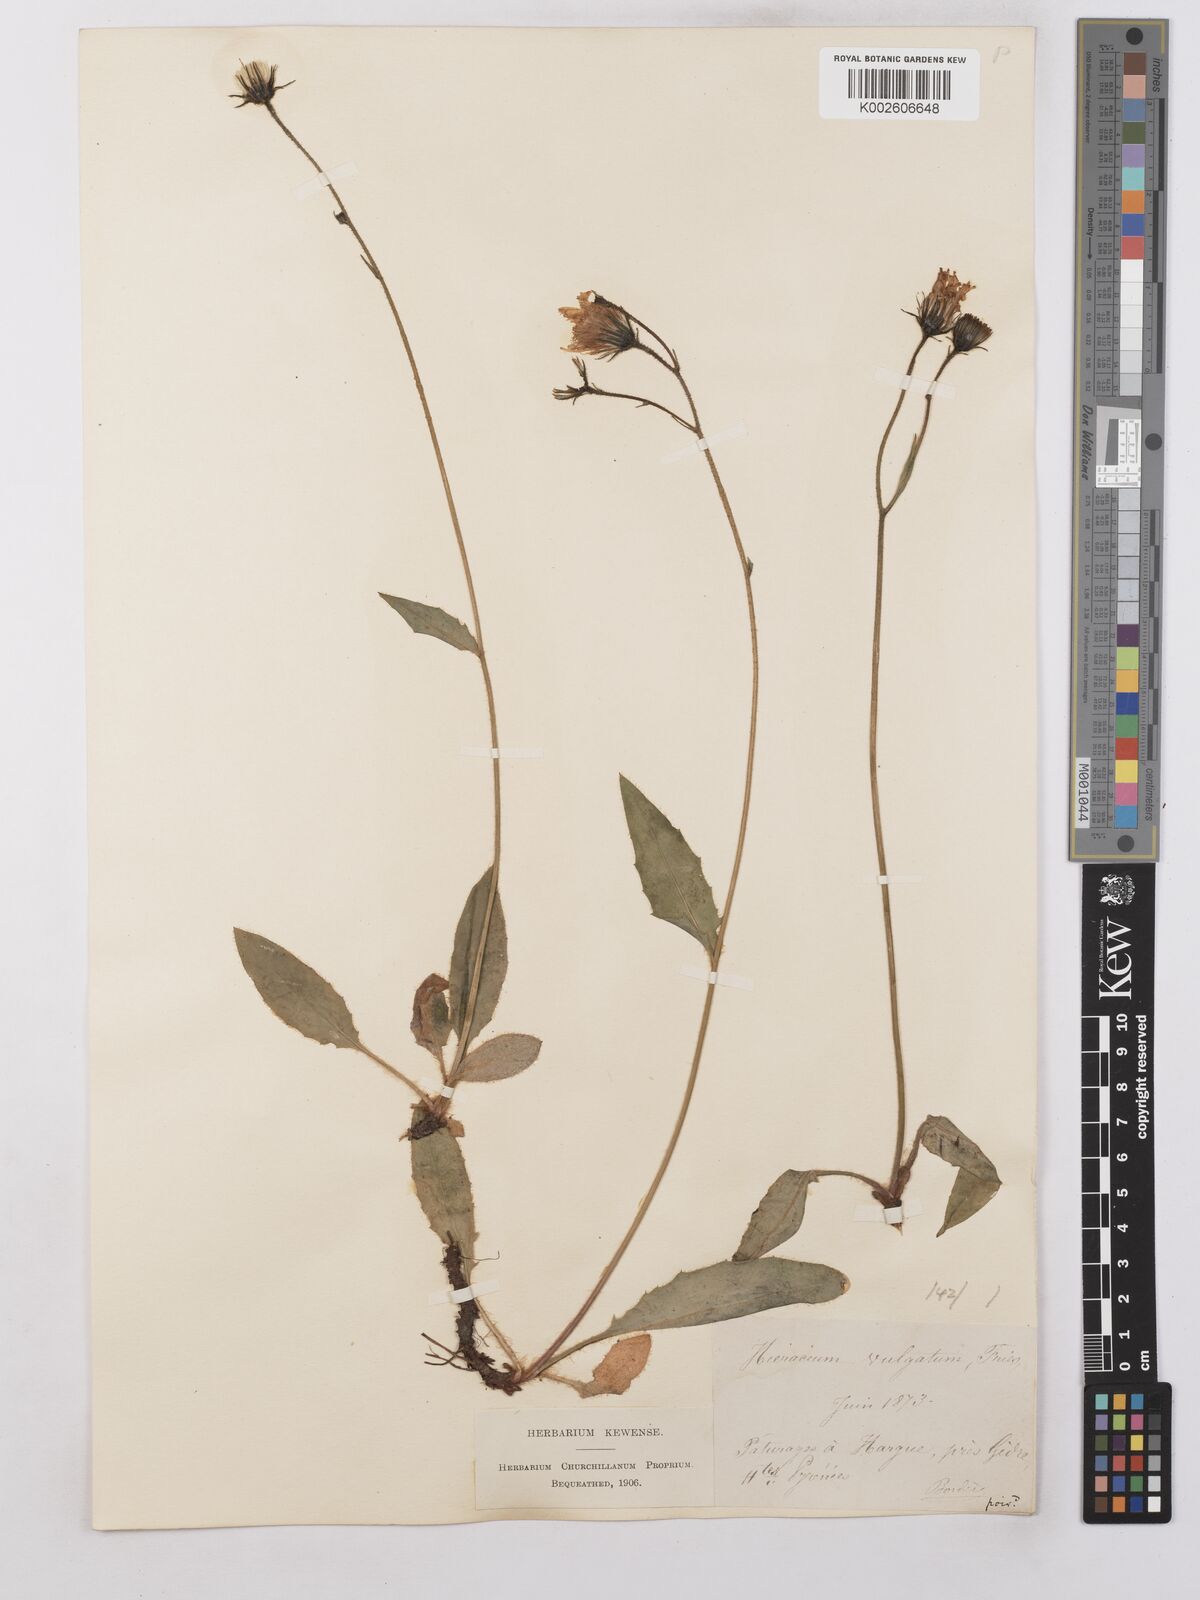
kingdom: Plantae
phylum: Tracheophyta
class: Magnoliopsida
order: Asterales
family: Asteraceae
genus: Hieracium
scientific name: Hieracium lepidulum
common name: Irregular-toothed hawkweed
